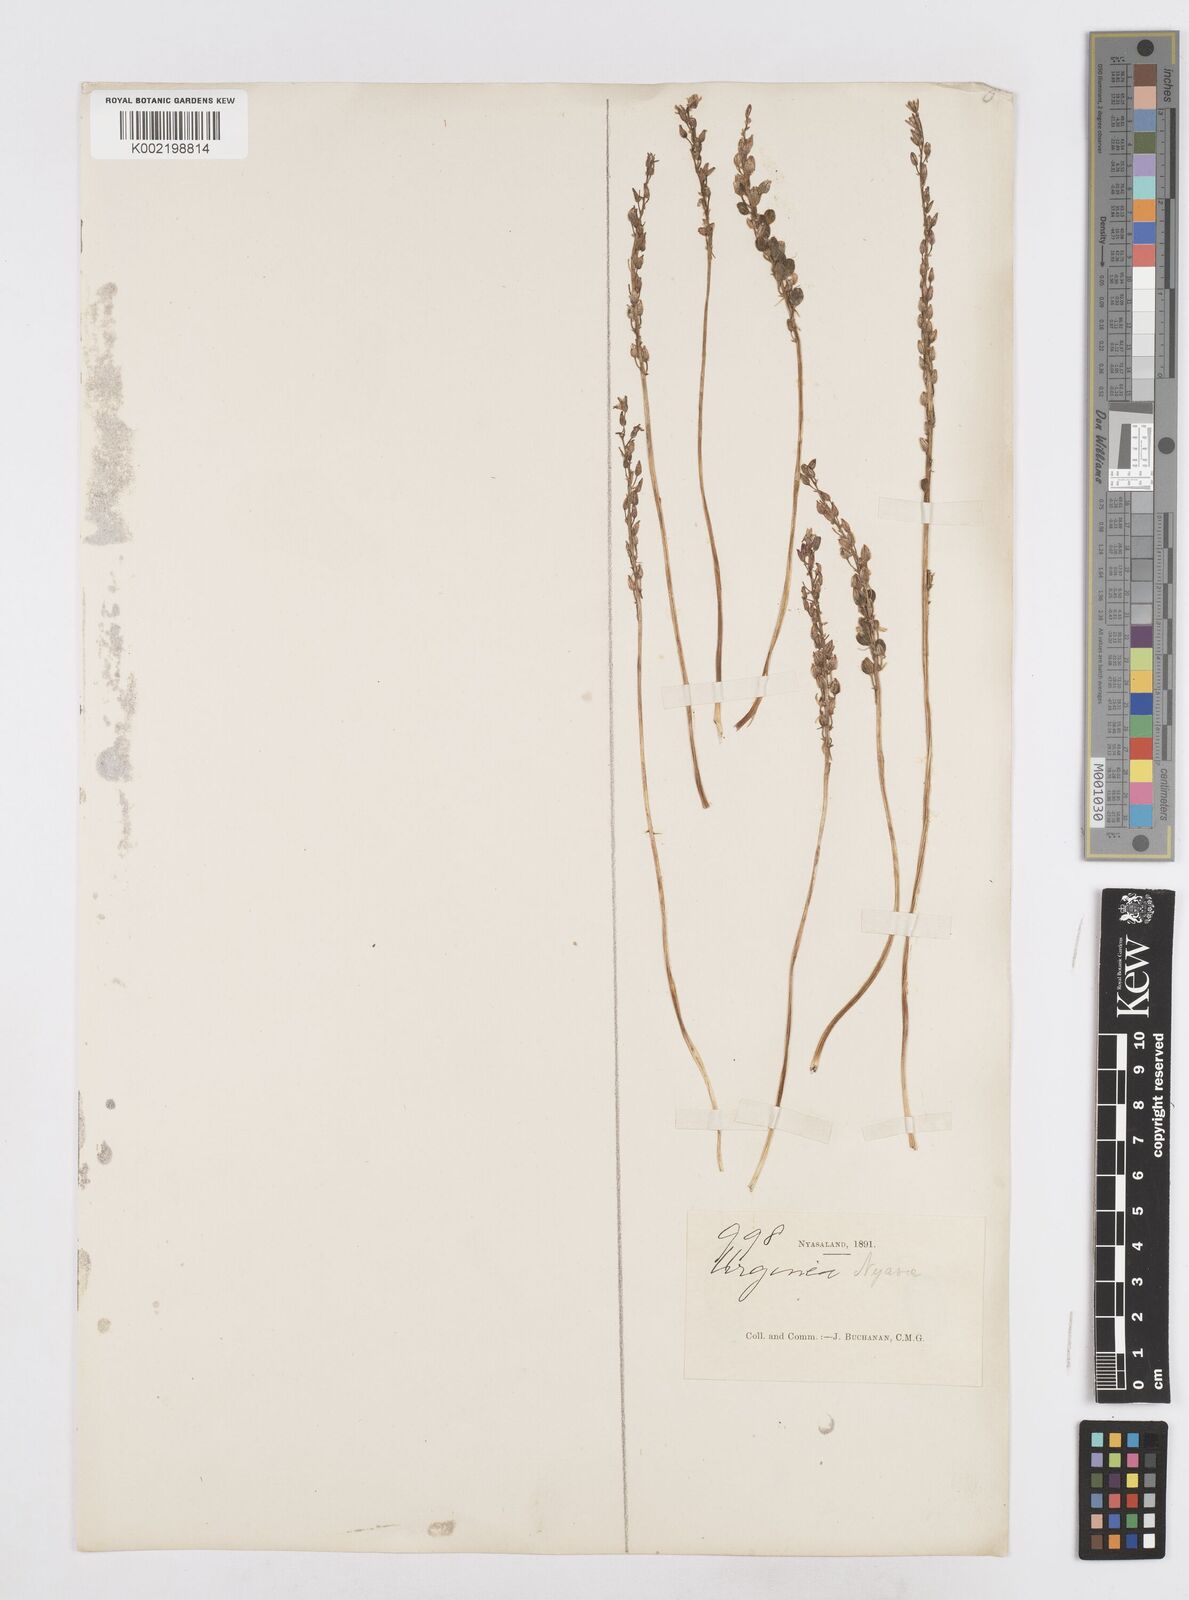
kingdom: Plantae
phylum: Tracheophyta
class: Liliopsida
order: Asparagales
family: Asparagaceae
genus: Drimia
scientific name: Drimia
